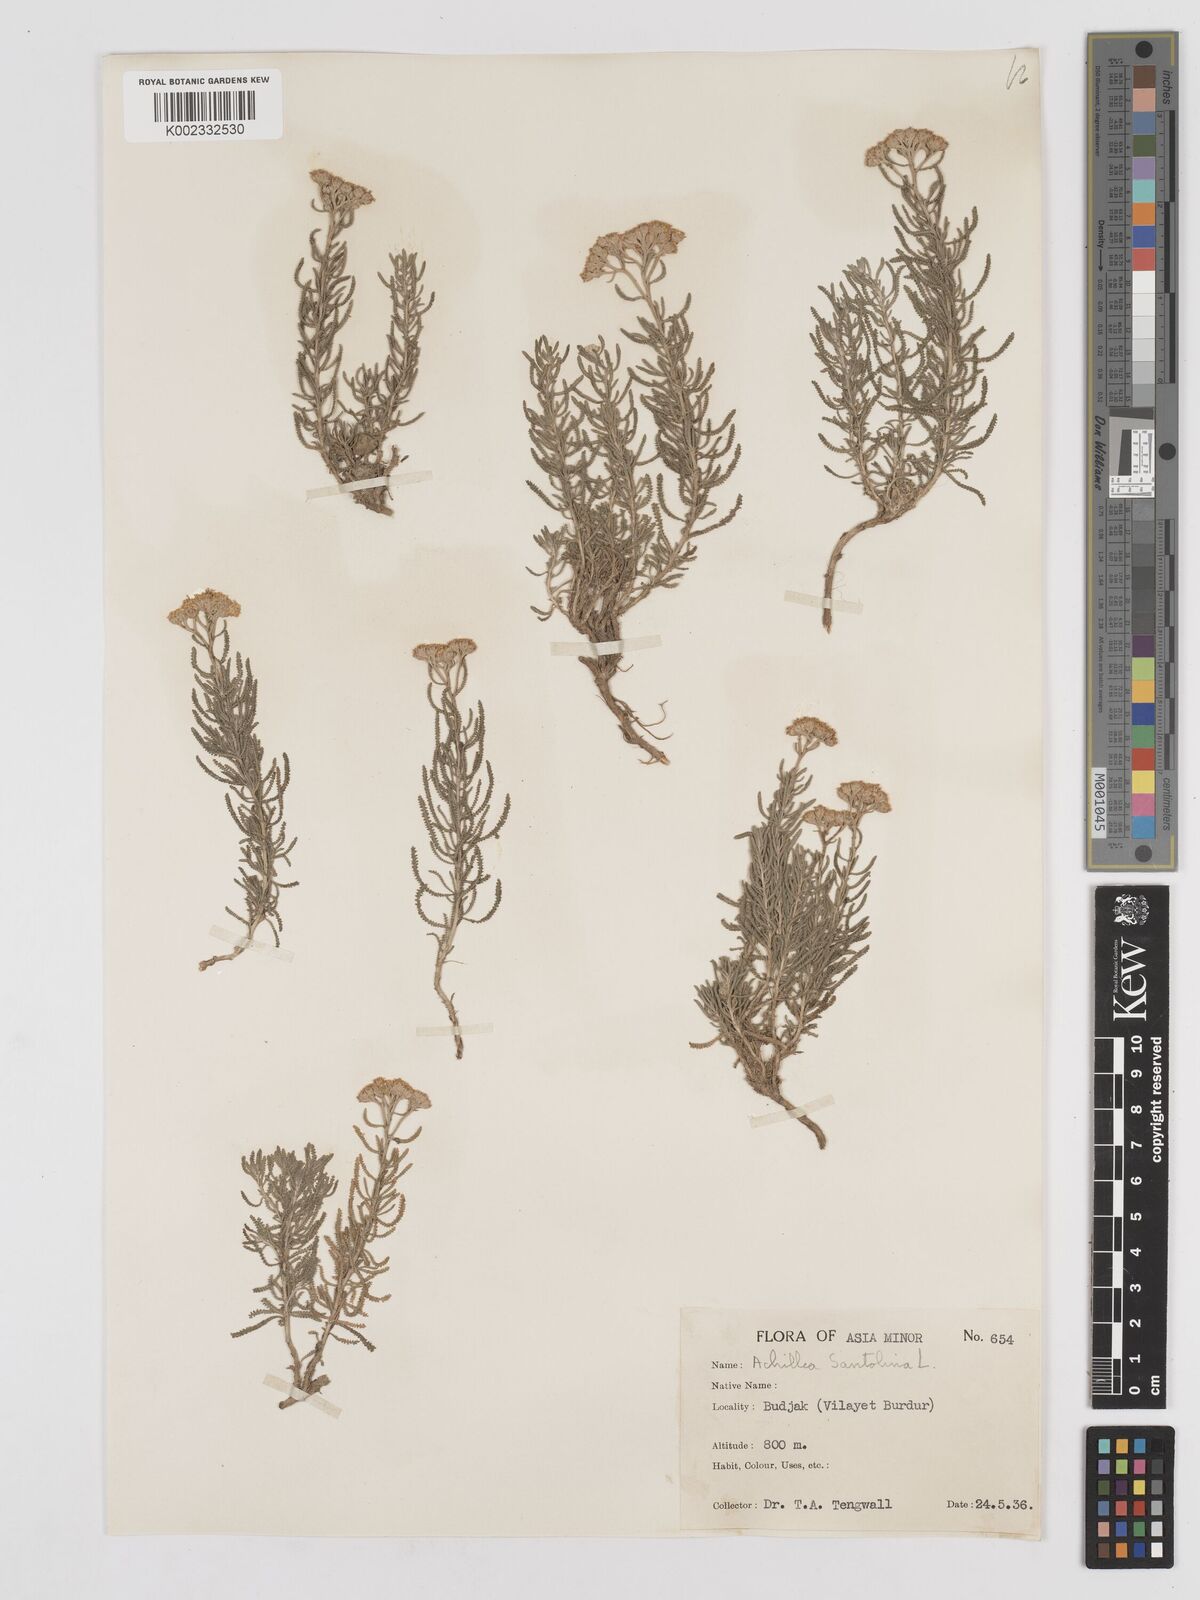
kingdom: Plantae
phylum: Tracheophyta
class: Magnoliopsida
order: Asterales
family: Asteraceae
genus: Achillea
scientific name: Achillea tenuifolia
